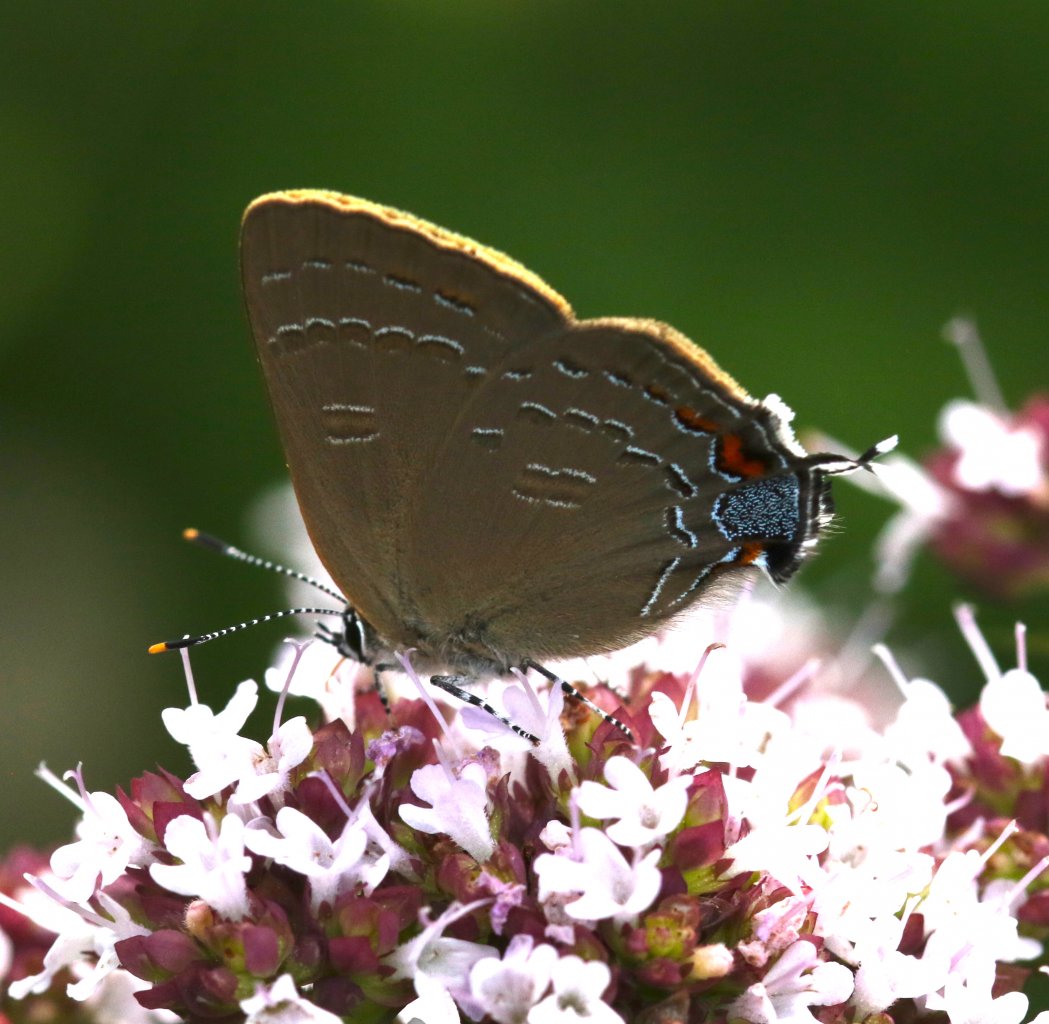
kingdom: Animalia
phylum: Arthropoda
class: Insecta
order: Lepidoptera
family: Lycaenidae
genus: Satyrium
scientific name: Satyrium calanus
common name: Banded Hairstreak
